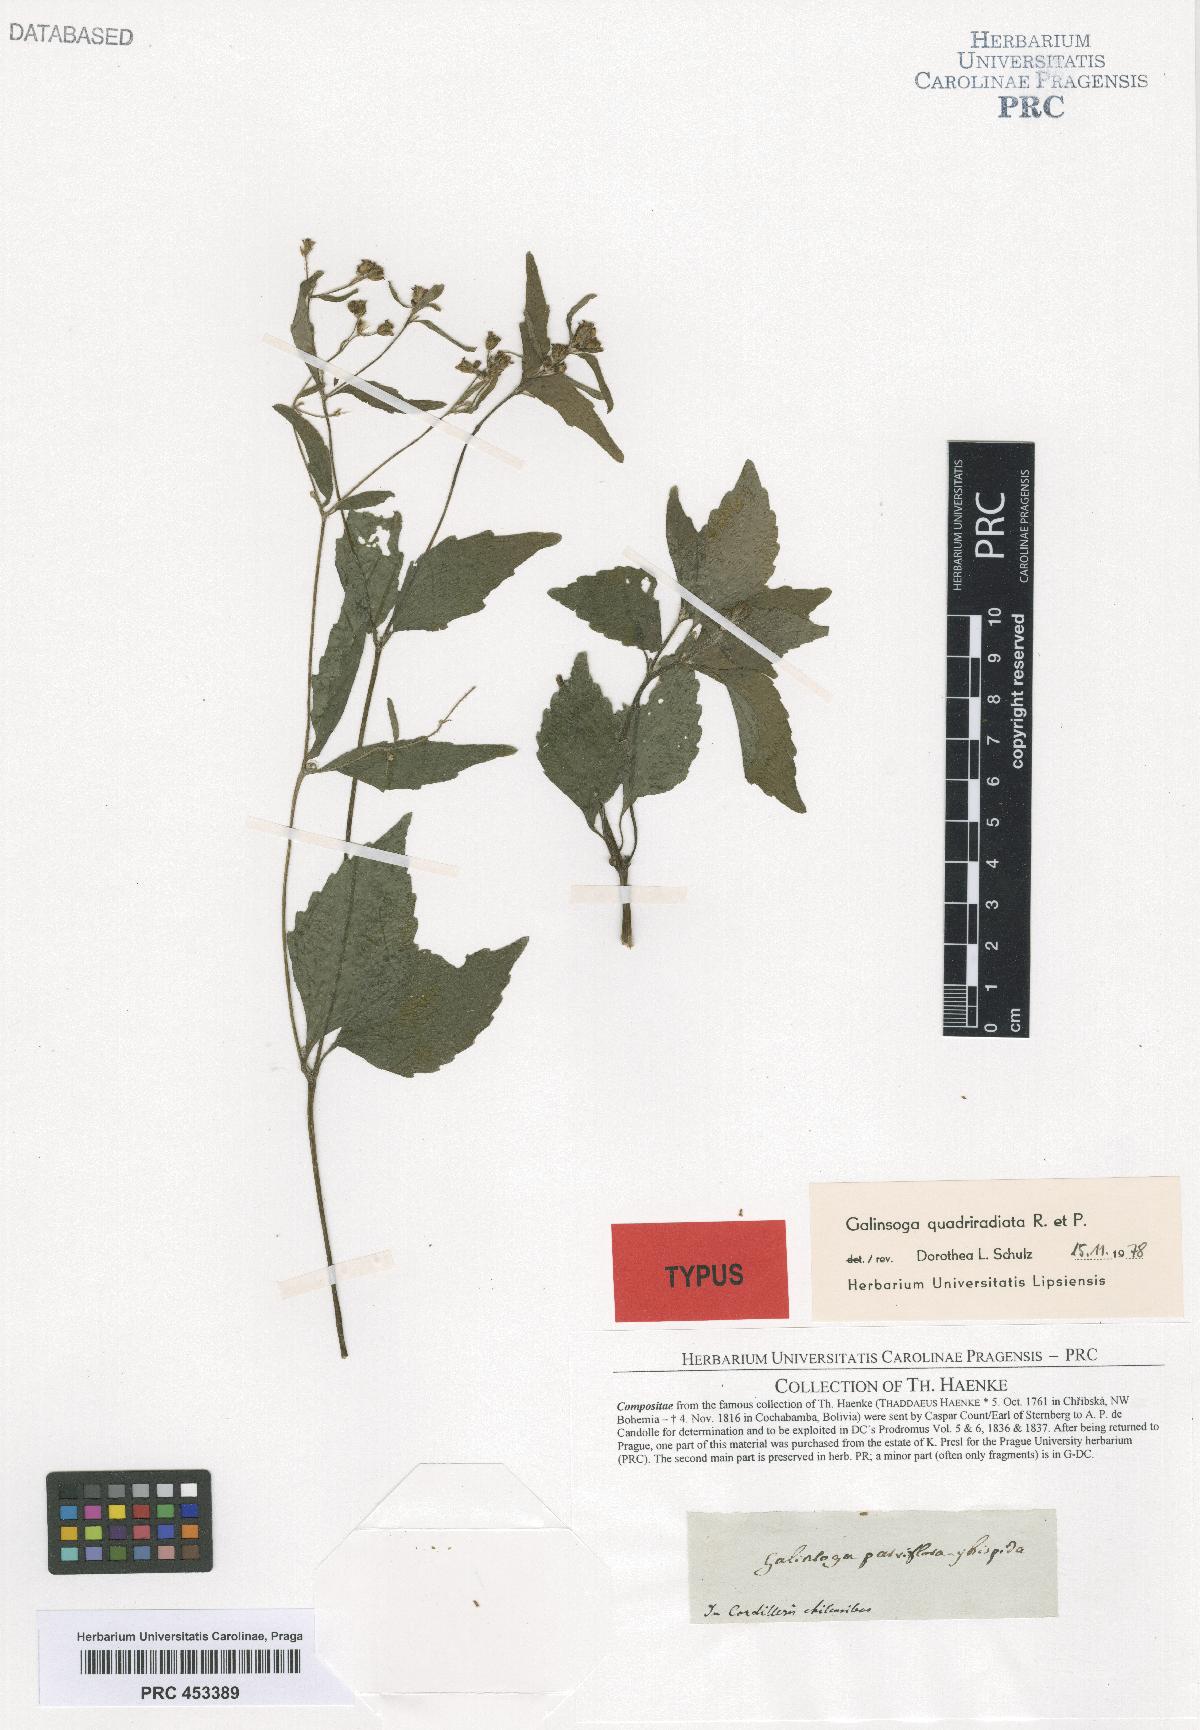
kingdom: Plantae
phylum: Tracheophyta
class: Magnoliopsida
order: Asterales
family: Asteraceae
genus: Galinsoga
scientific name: Galinsoga quadriradiata
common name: Shaggy soldier
